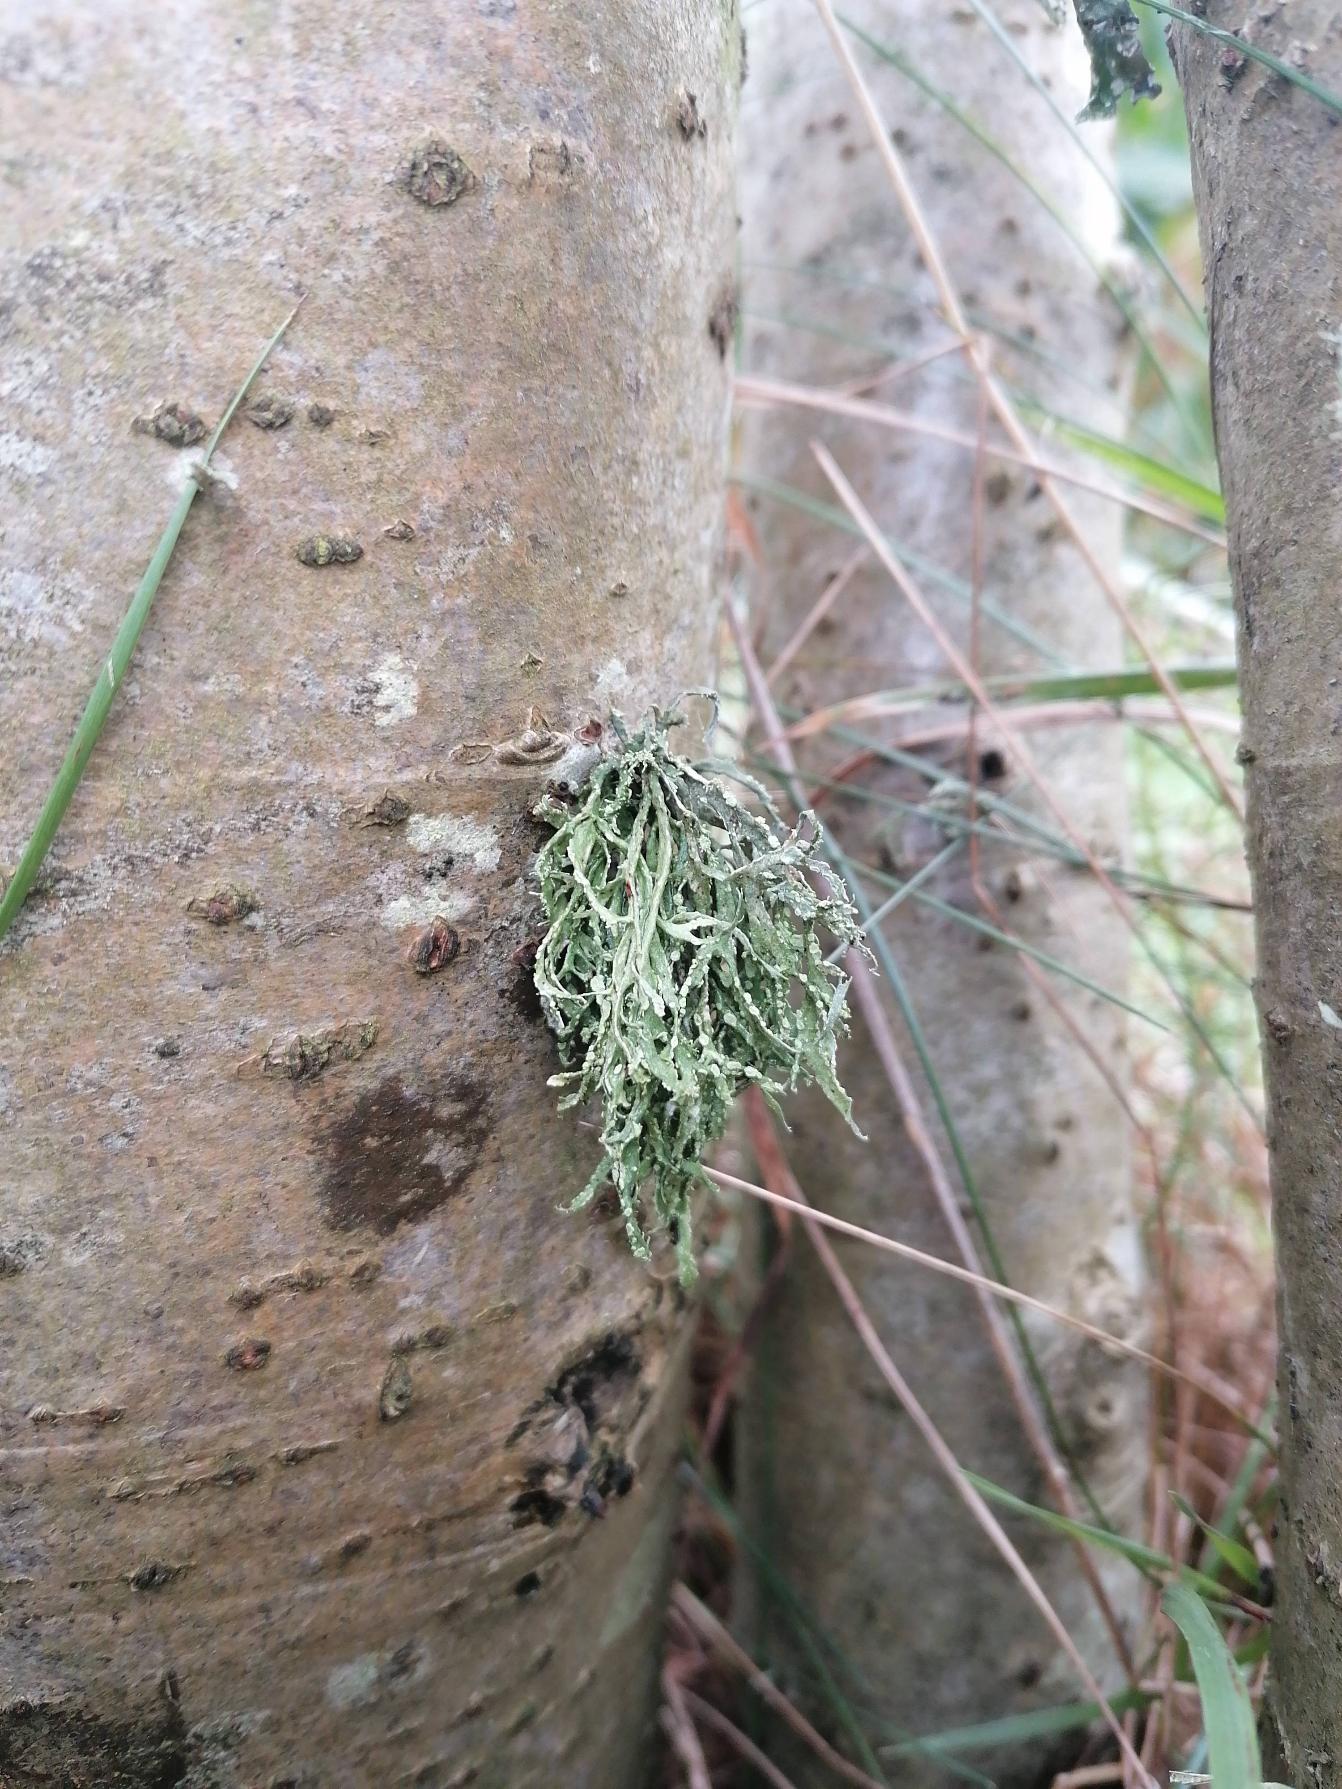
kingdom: Fungi
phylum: Ascomycota
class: Lecanoromycetes
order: Lecanorales
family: Ramalinaceae
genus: Ramalina
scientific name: Ramalina farinacea
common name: Melet grenlav
